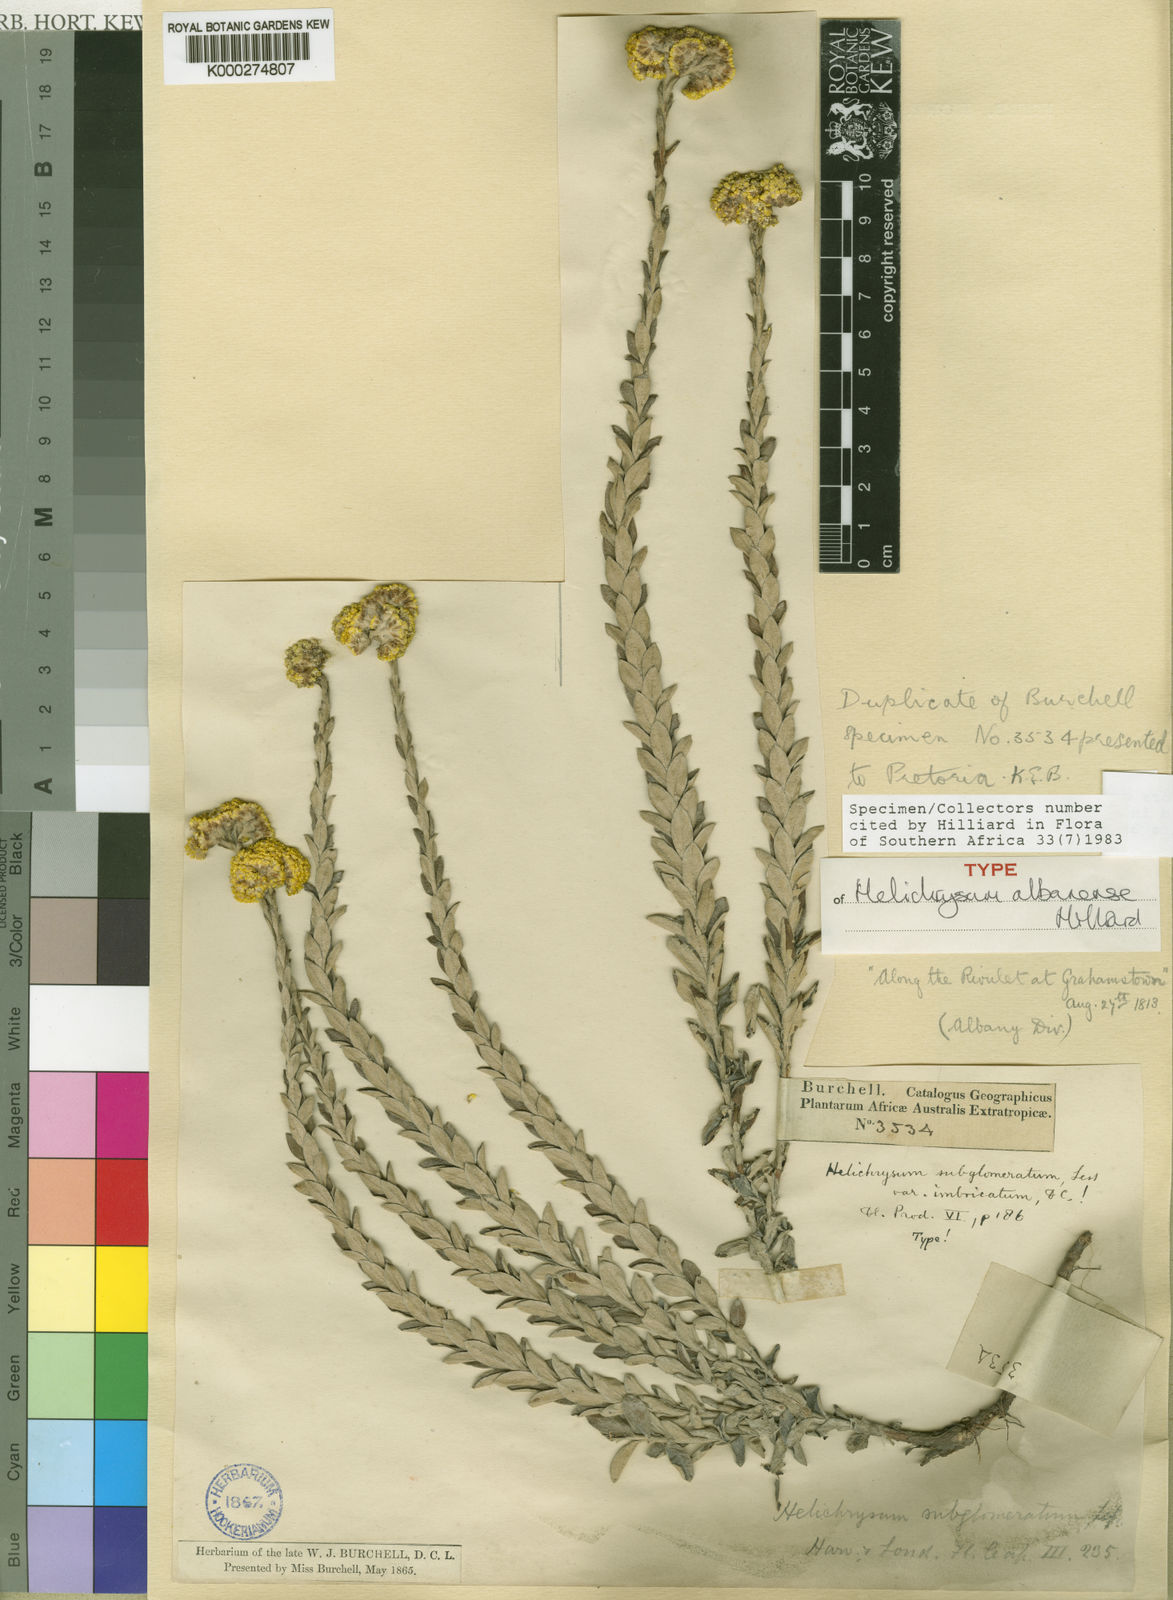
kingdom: Plantae
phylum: Tracheophyta
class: Magnoliopsida
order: Asterales
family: Asteraceae
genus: Helichrysum
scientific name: Helichrysum albanense
